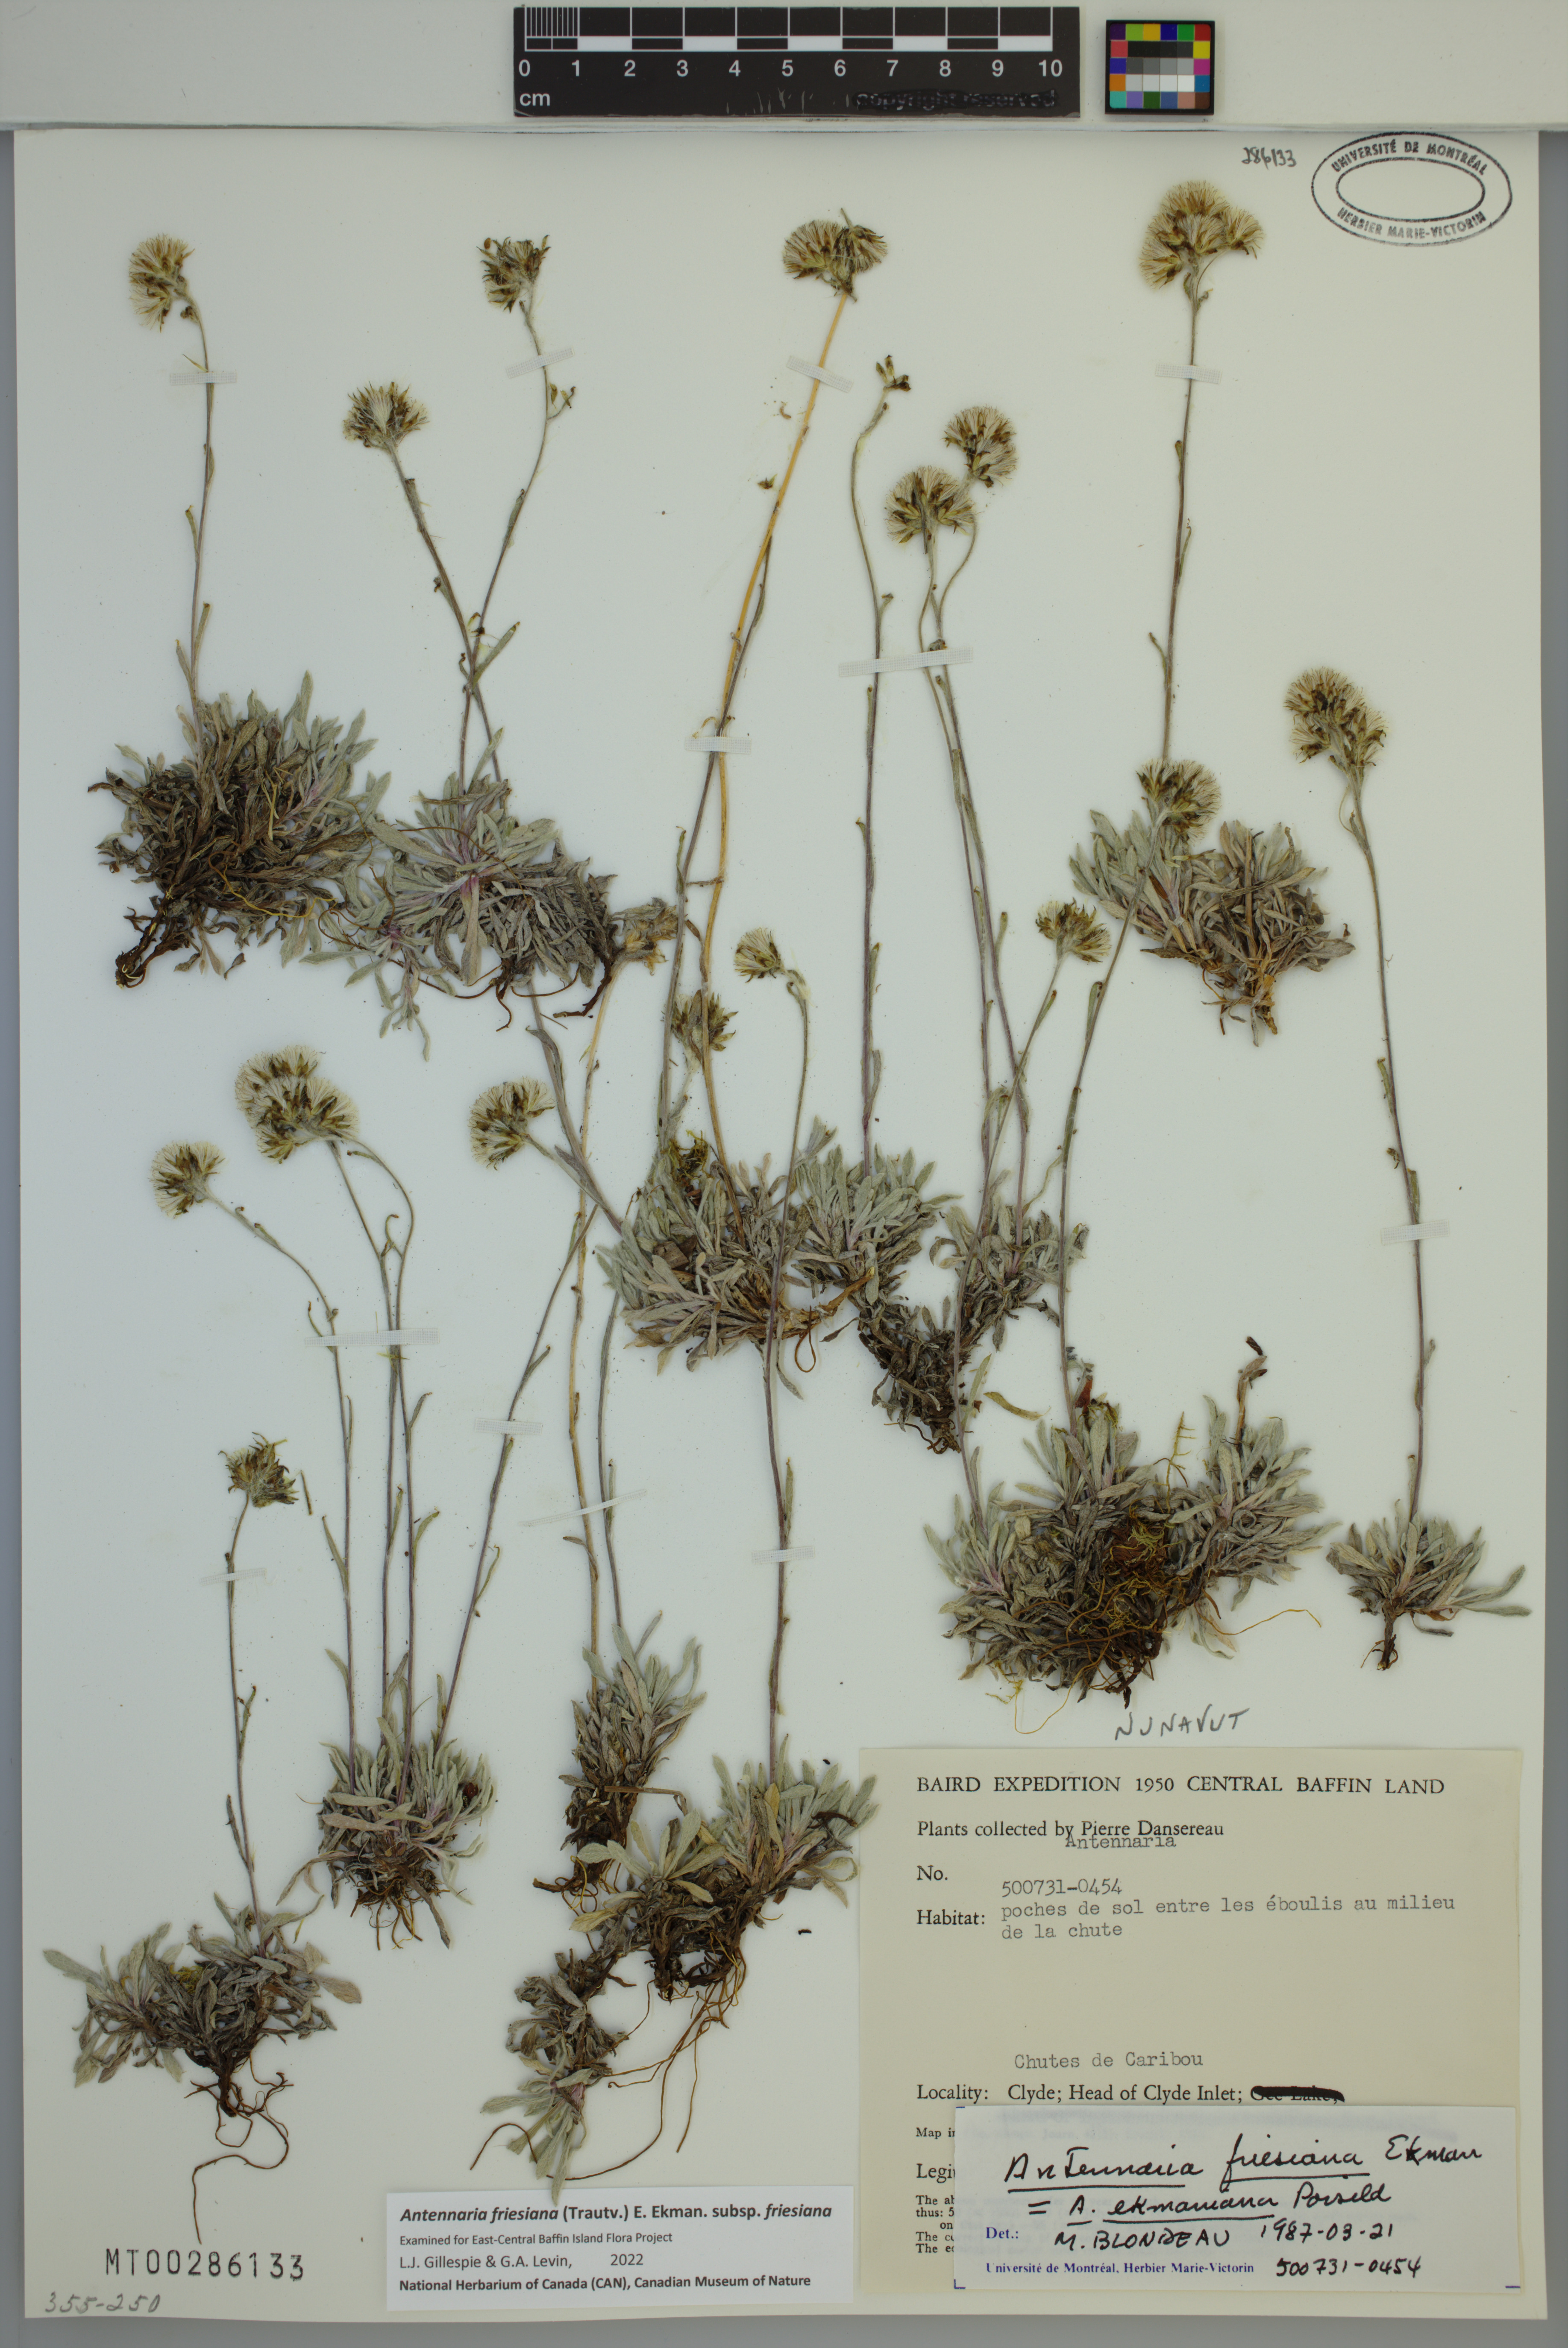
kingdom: Plantae
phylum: Tracheophyta
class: Magnoliopsida
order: Asterales
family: Asteraceae
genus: Antennaria
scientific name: Antennaria friesiana
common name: Fries' pussytoes
